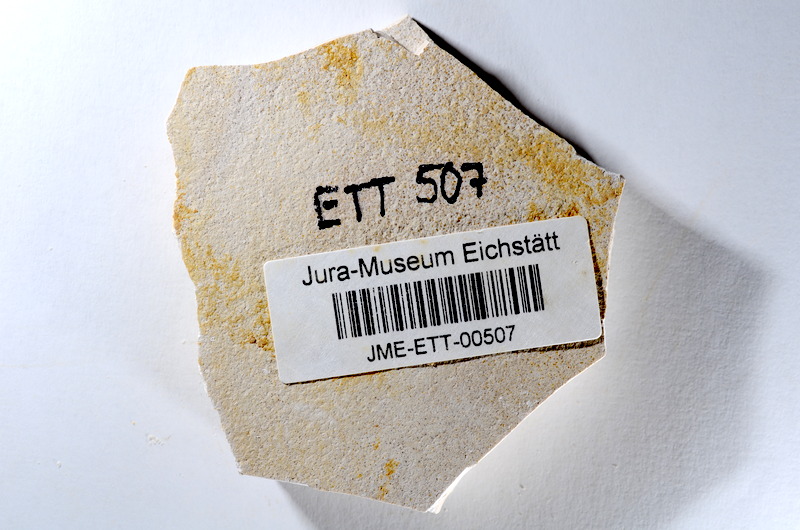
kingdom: Animalia
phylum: Chordata
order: Salmoniformes
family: Orthogonikleithridae
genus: Orthogonikleithrus
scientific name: Orthogonikleithrus hoelli
